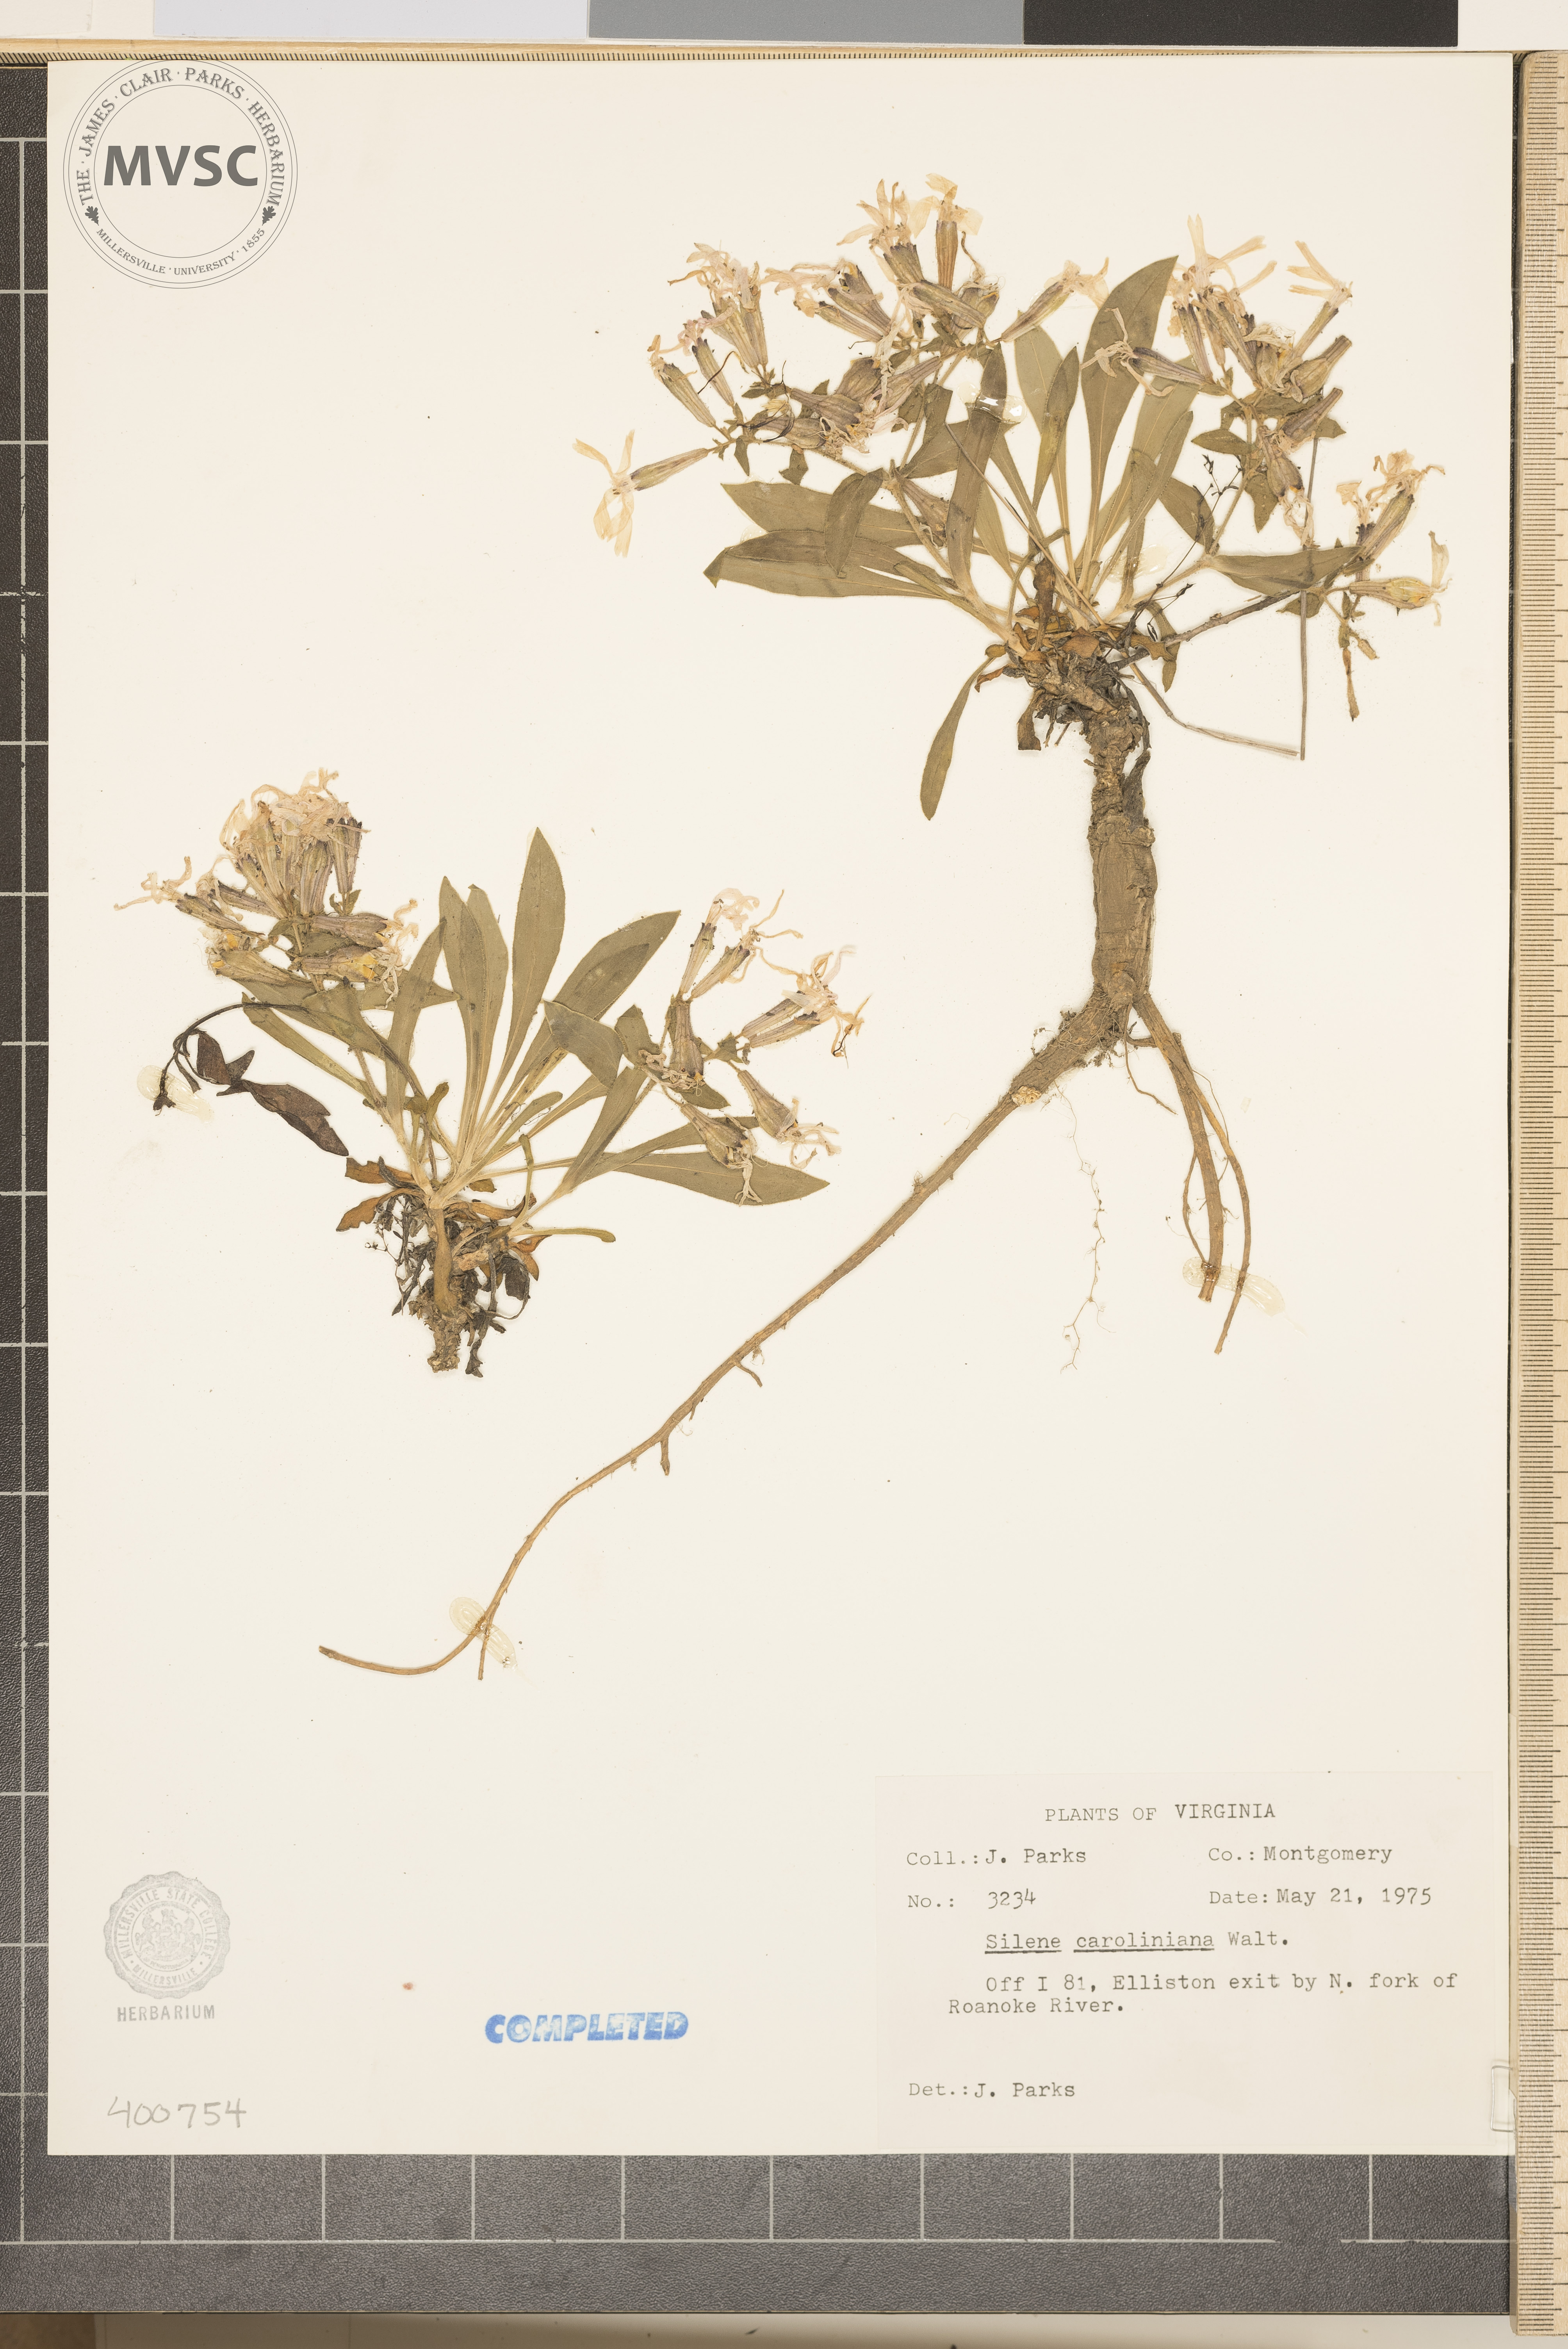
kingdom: Plantae
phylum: Tracheophyta
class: Magnoliopsida
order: Caryophyllales
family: Caryophyllaceae
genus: Silene
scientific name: Silene caroliniana
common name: Sticky catchfly
